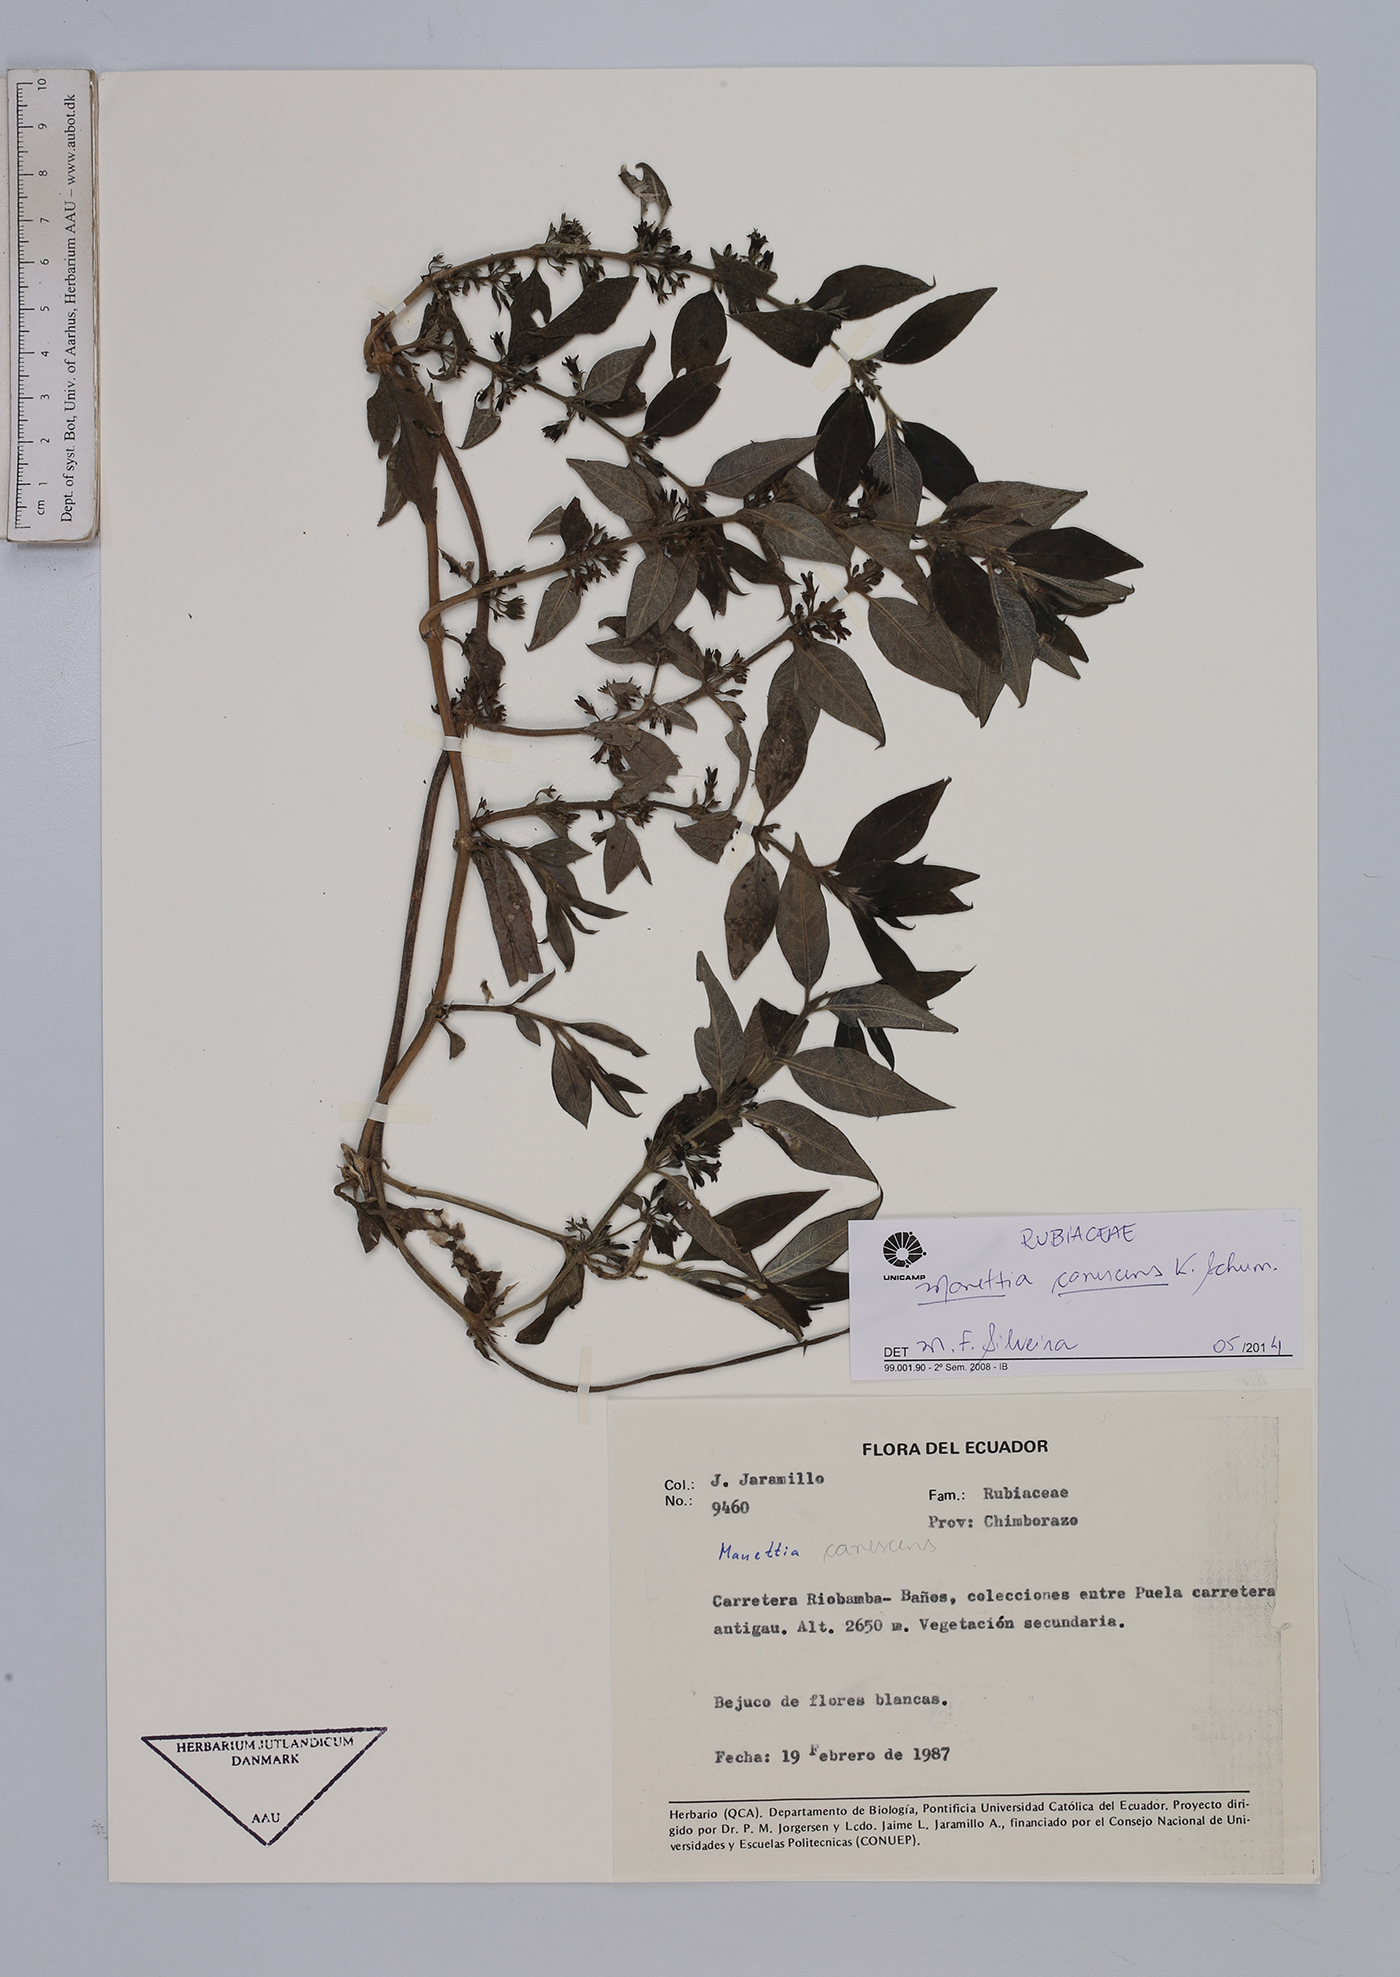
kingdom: Plantae
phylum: Tracheophyta
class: Magnoliopsida
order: Gentianales
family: Rubiaceae
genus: Manettia
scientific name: Manettia canescens
